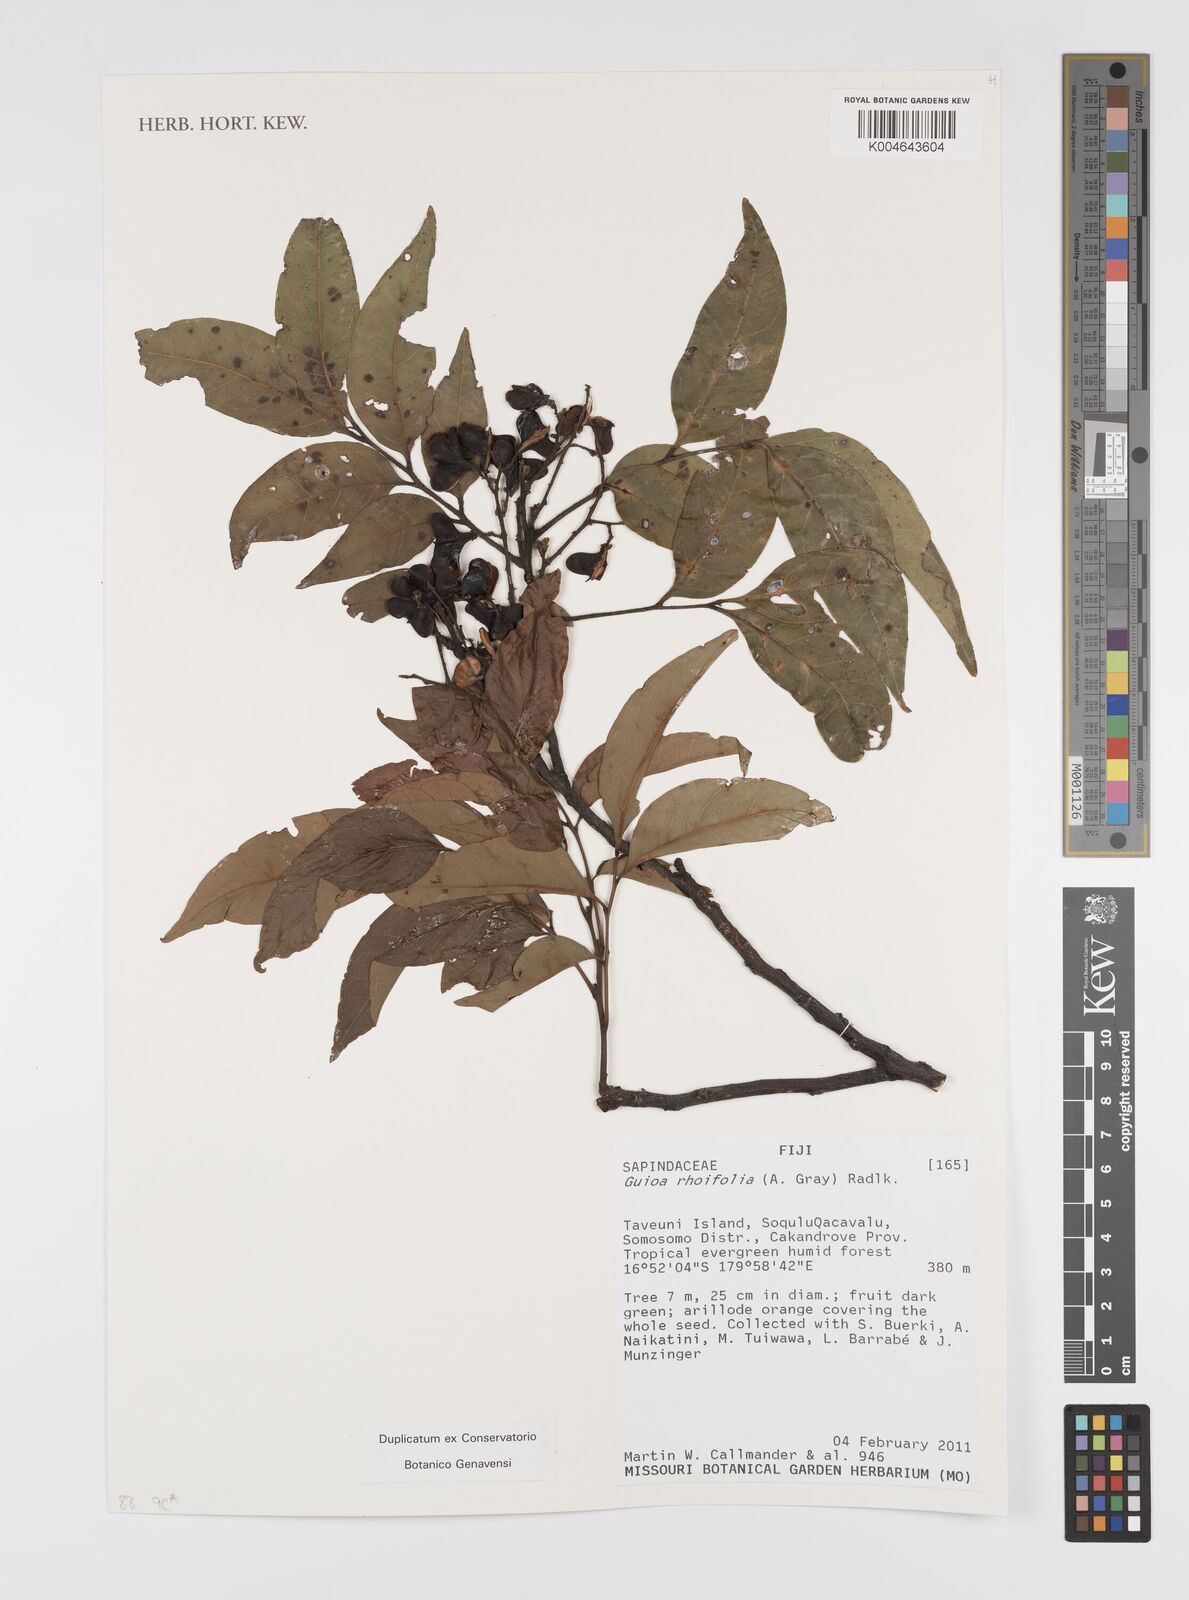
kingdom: Plantae
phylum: Tracheophyta
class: Magnoliopsida
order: Sapindales
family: Sapindaceae
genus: Guioa
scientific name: Guioa rhoifolia
